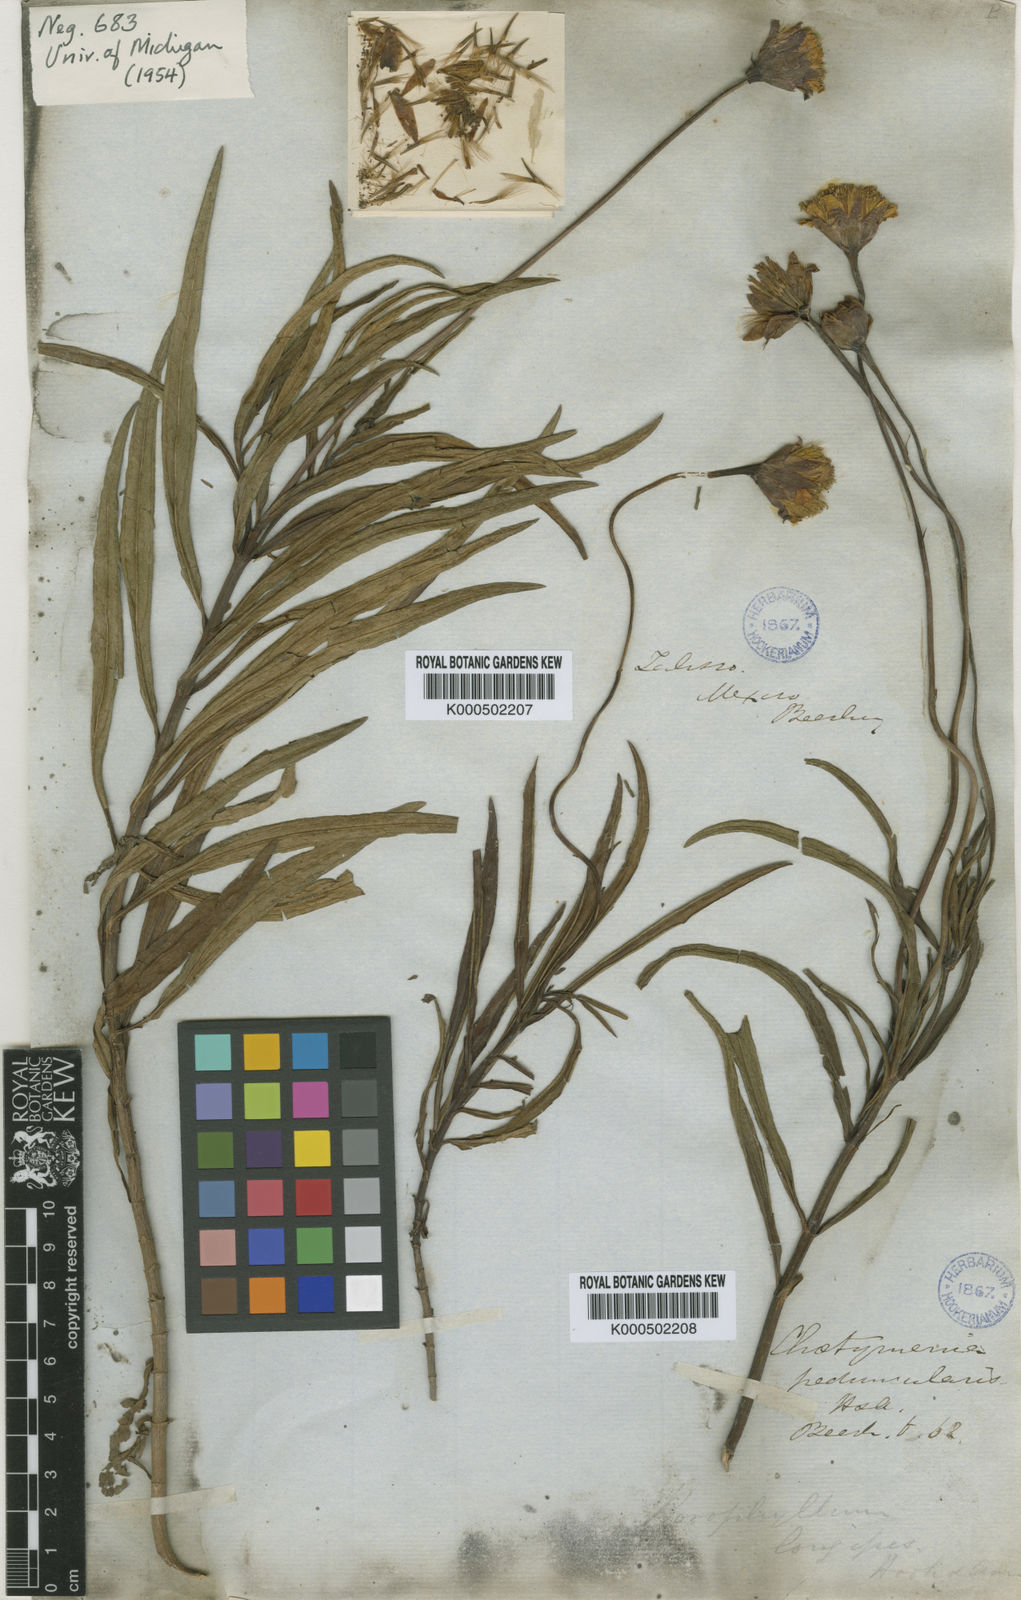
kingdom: Plantae
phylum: Tracheophyta
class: Magnoliopsida
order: Asterales
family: Asteraceae
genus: Chaetymenia
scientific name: Chaetymenia peduncularis
